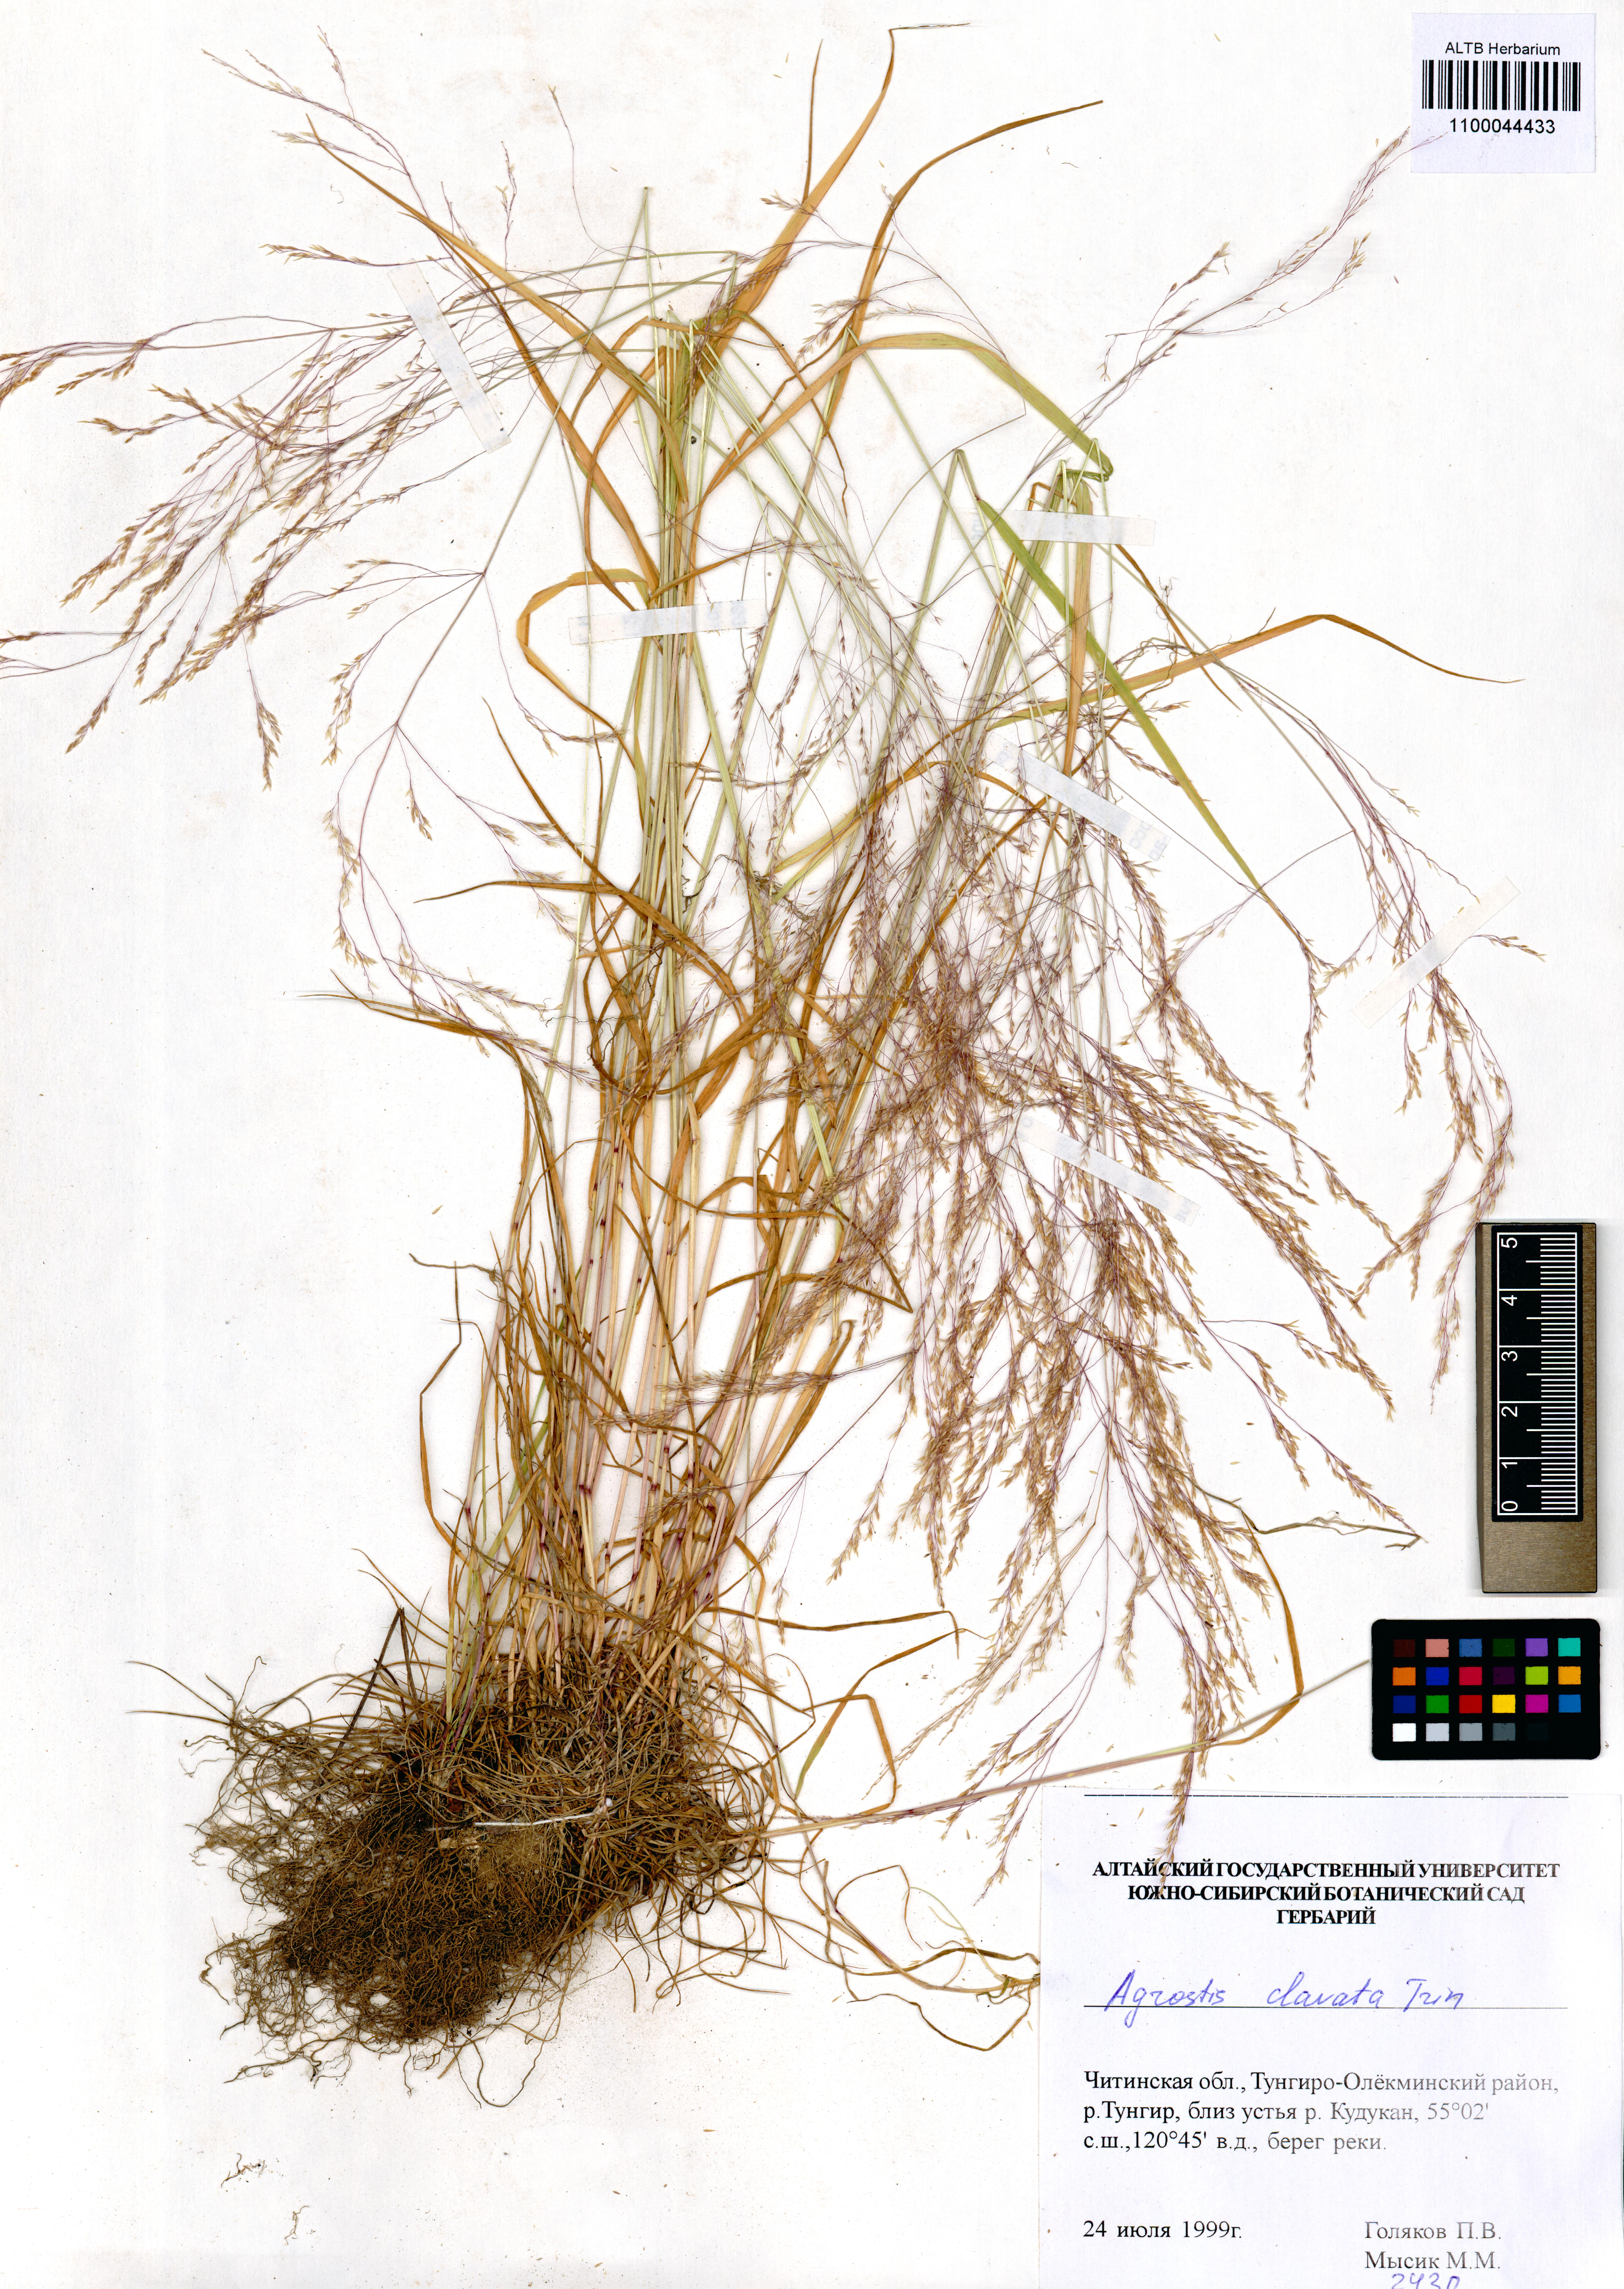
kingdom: Plantae
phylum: Tracheophyta
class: Liliopsida
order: Poales
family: Poaceae
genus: Agrostis
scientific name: Agrostis clavata
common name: Clavate bent
